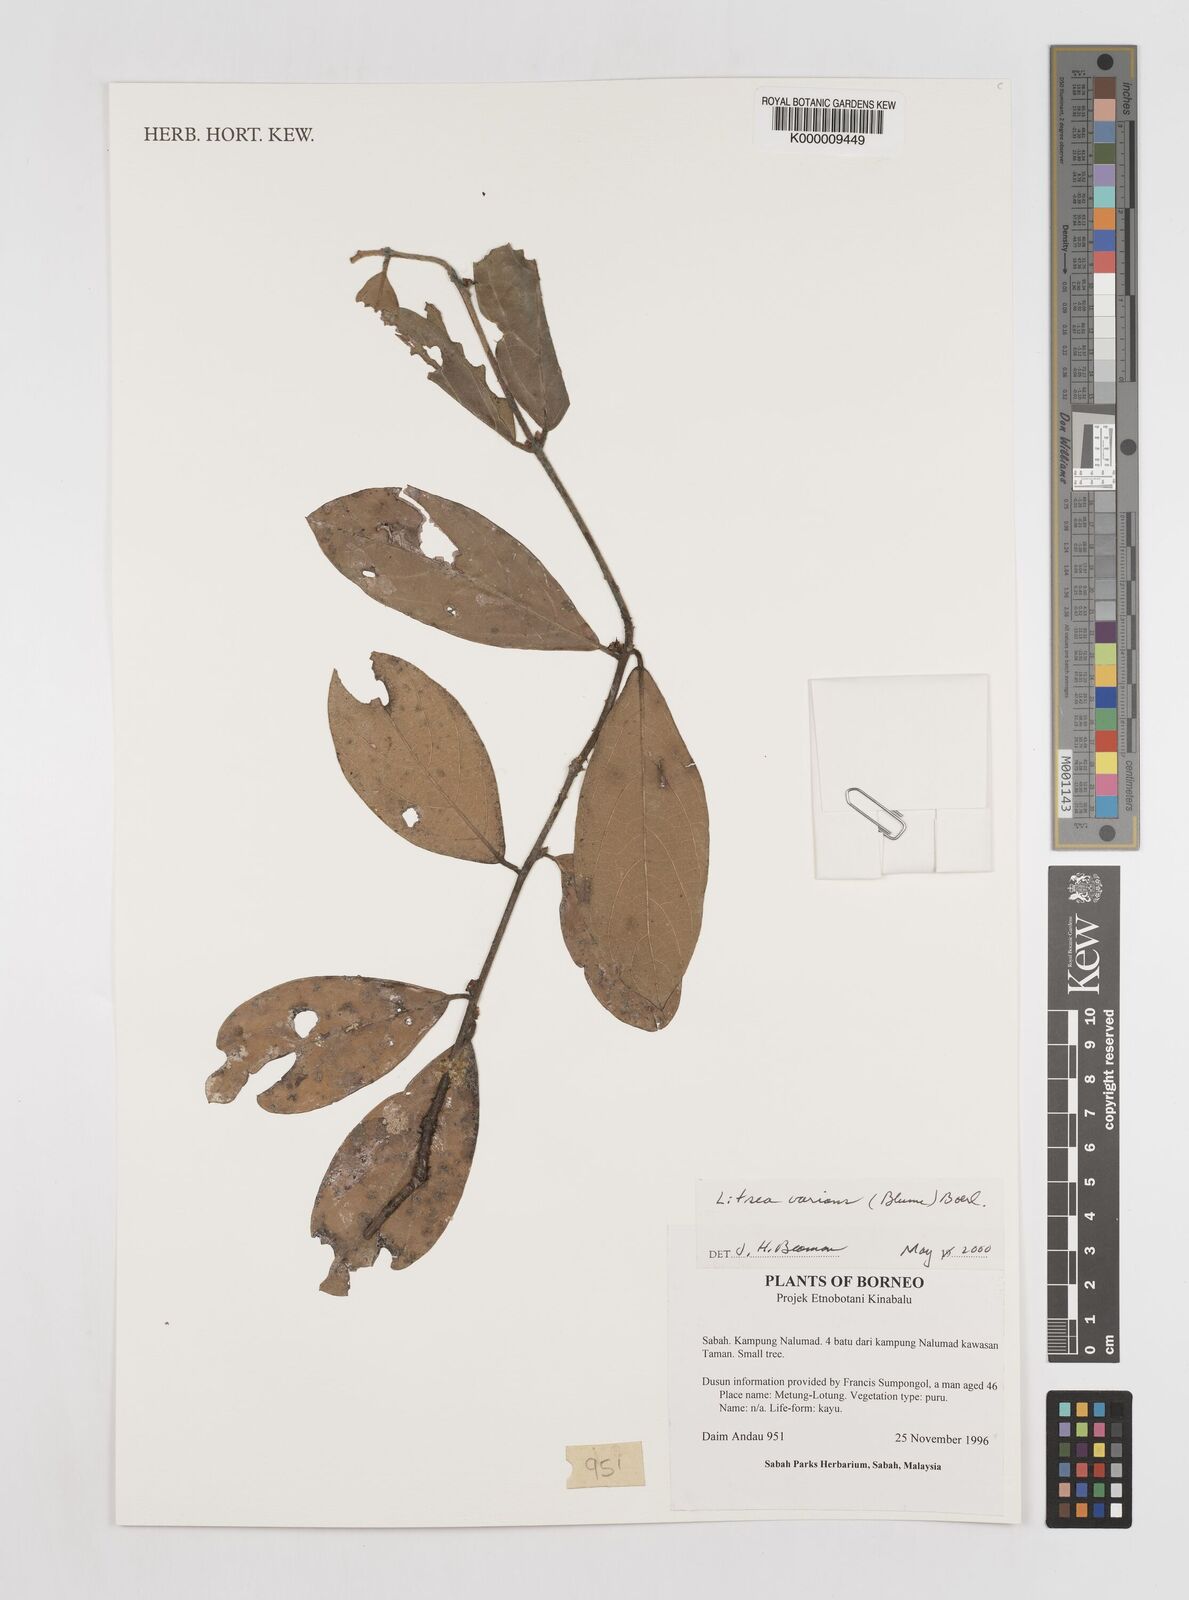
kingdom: Plantae
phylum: Tracheophyta
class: Magnoliopsida
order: Laurales
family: Lauraceae
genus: Litsea
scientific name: Litsea varians
